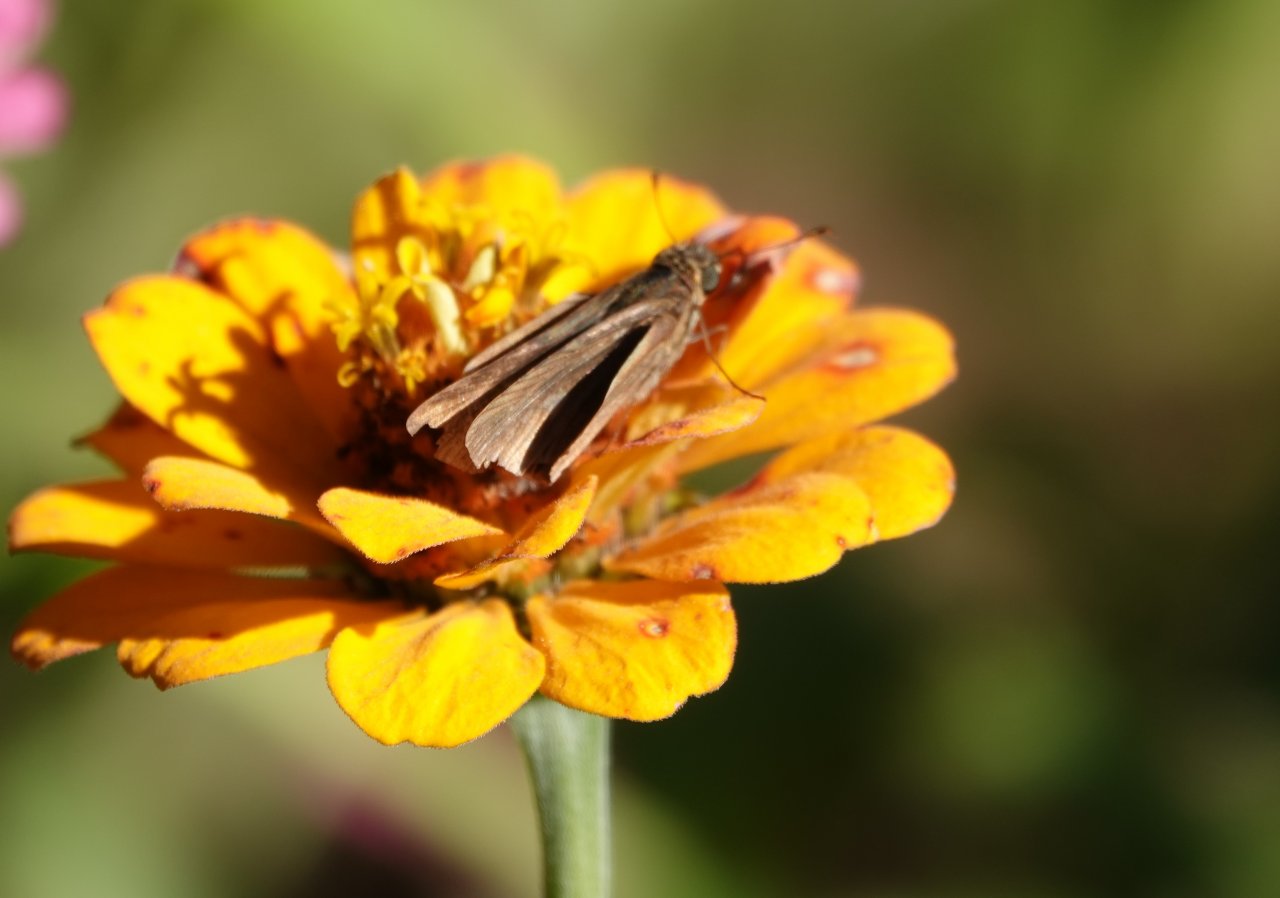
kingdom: Animalia
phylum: Arthropoda
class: Insecta
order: Lepidoptera
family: Hesperiidae
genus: Panoquina
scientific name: Panoquina ocola
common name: Ocola Skipper
